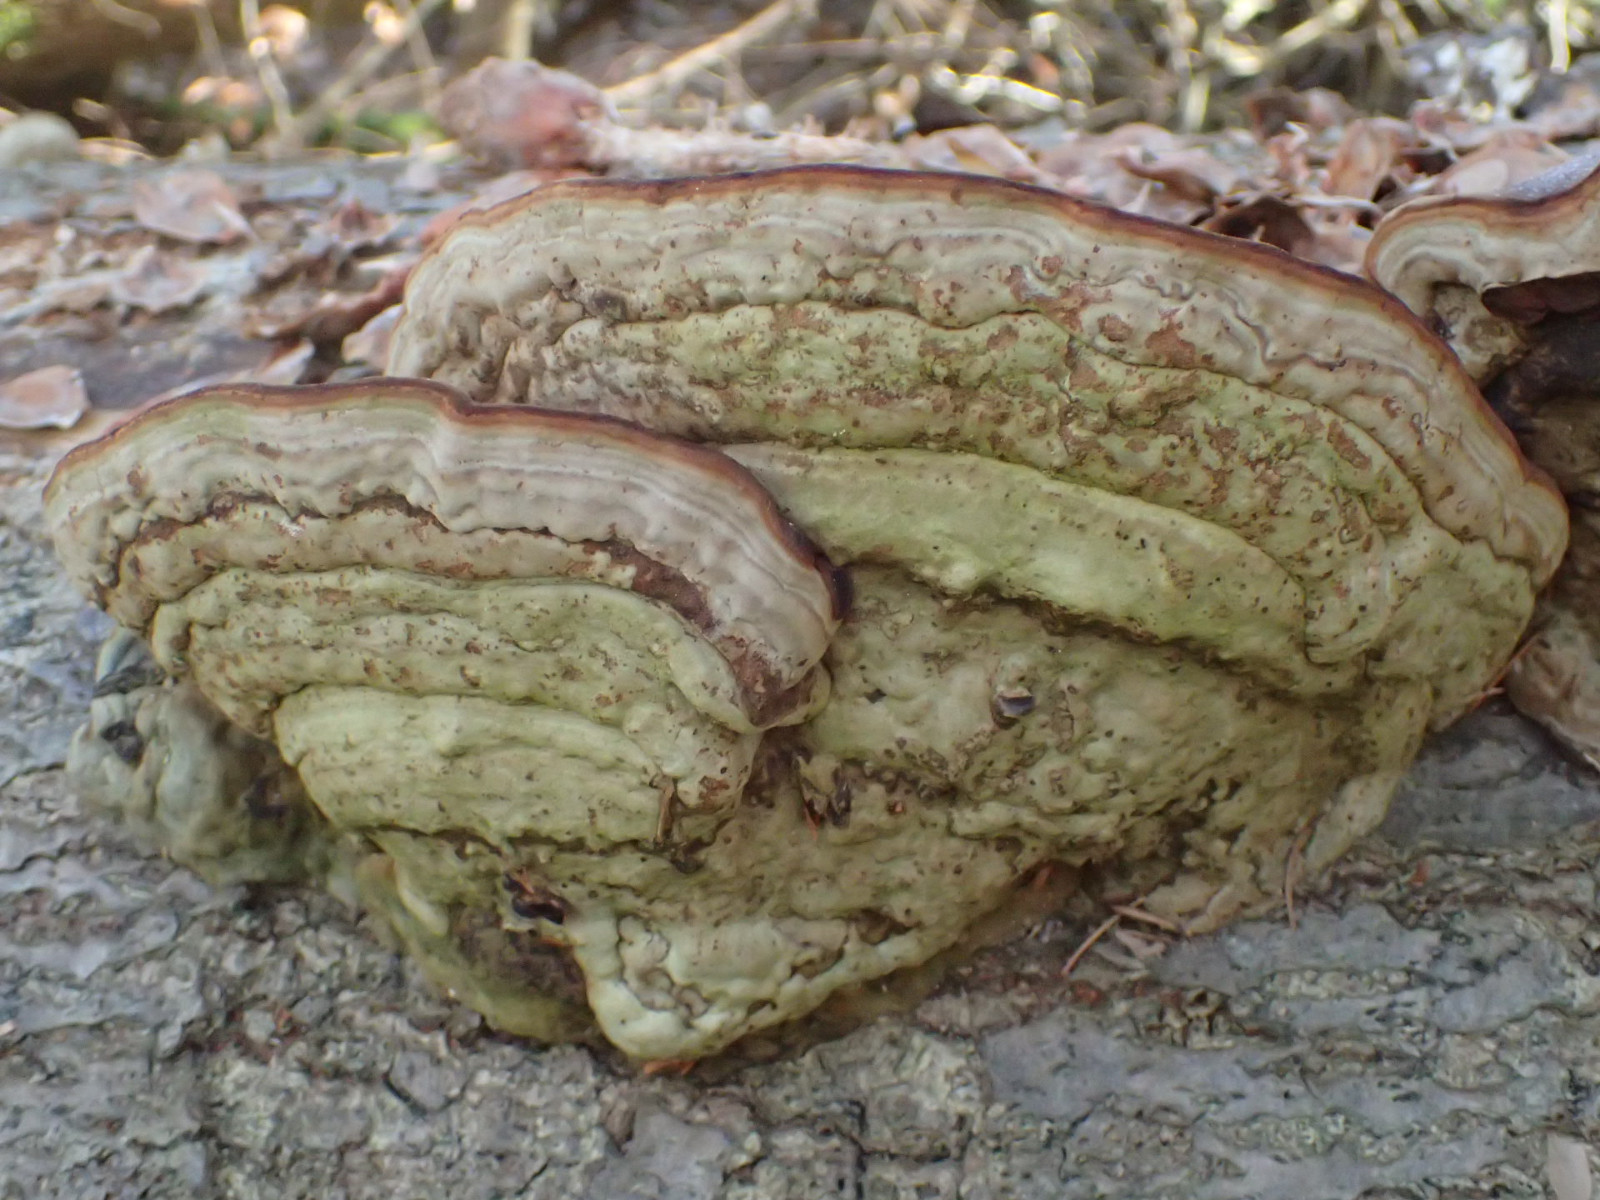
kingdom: Fungi
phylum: Basidiomycota
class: Agaricomycetes
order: Polyporales
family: Polyporaceae
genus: Fomes
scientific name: Fomes fomentarius
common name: tøndersvamp
